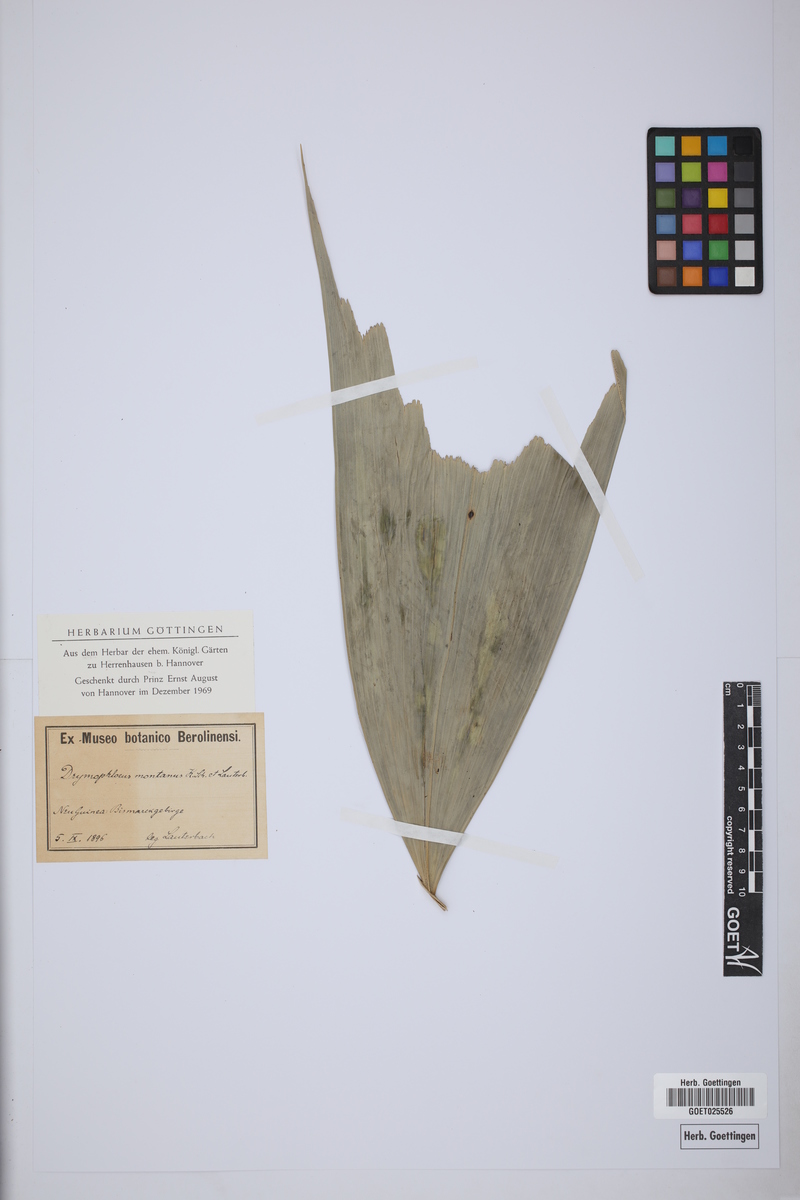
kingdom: Plantae
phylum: Tracheophyta
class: Liliopsida
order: Arecales
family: Arecaceae
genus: Ptychosperma
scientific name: Ptychosperma caryotoides
